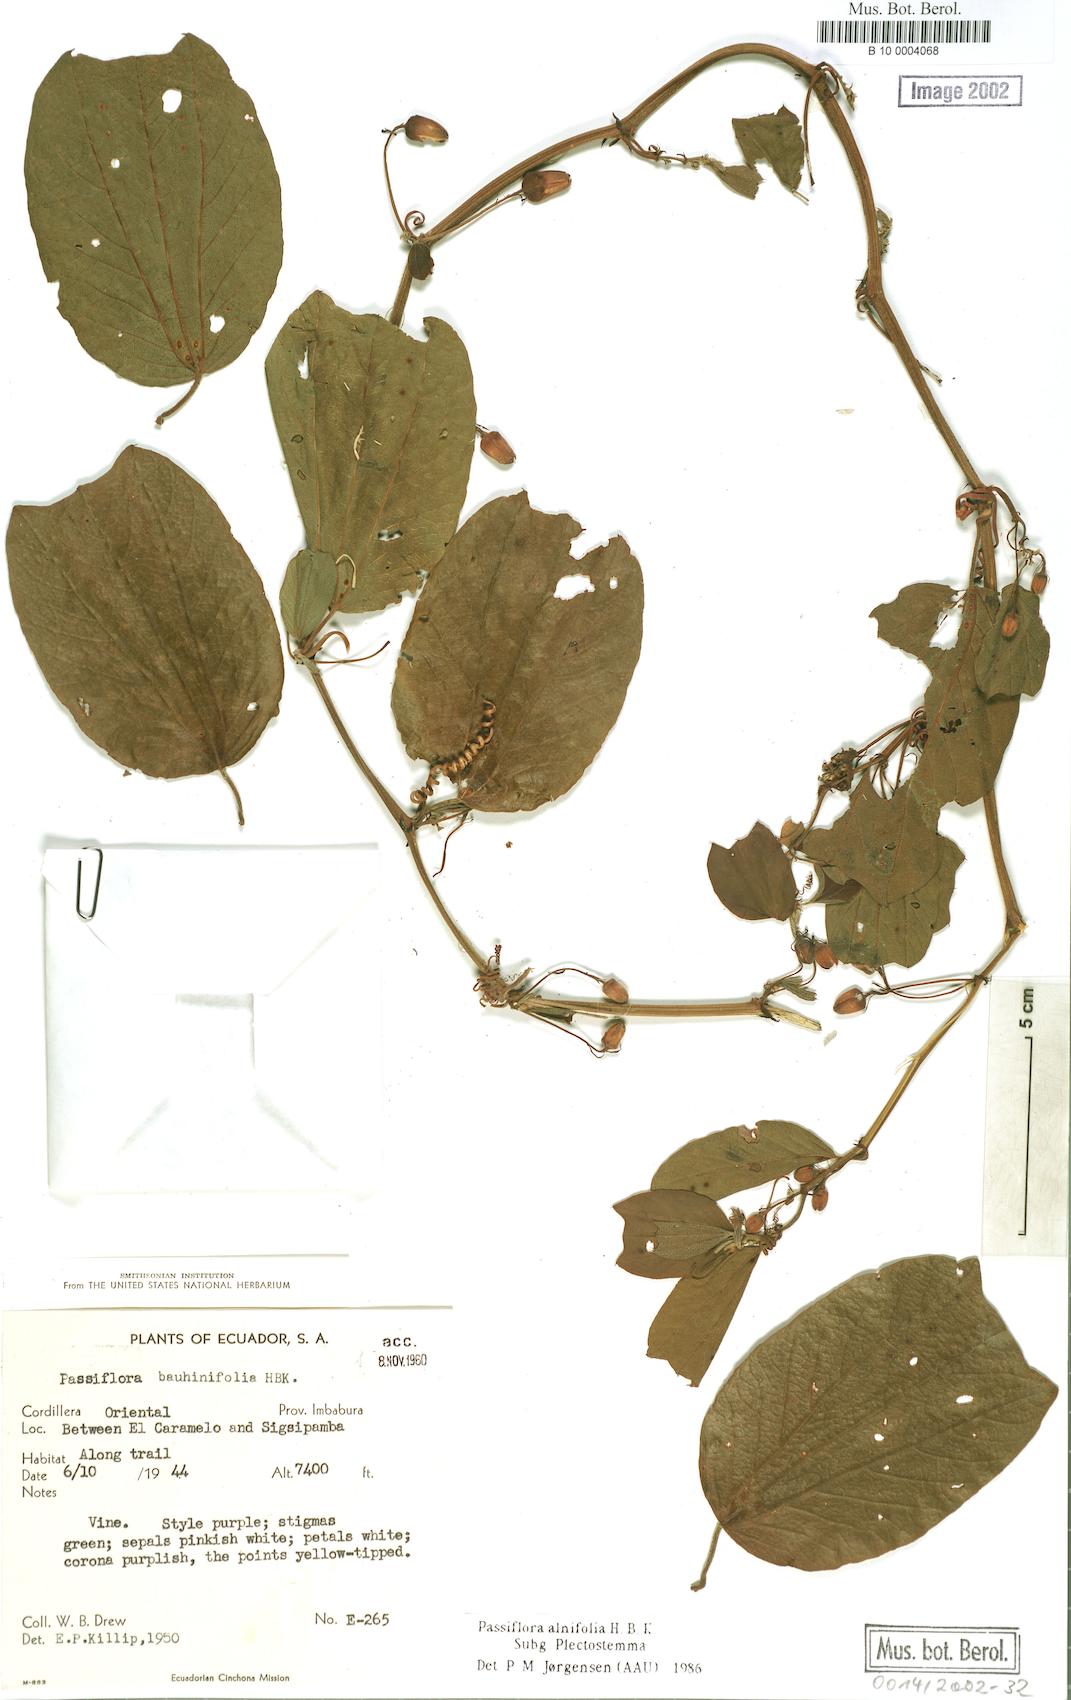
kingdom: Plantae
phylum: Tracheophyta
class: Magnoliopsida
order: Malpighiales
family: Passifloraceae
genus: Passiflora
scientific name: Passiflora alnifolia
